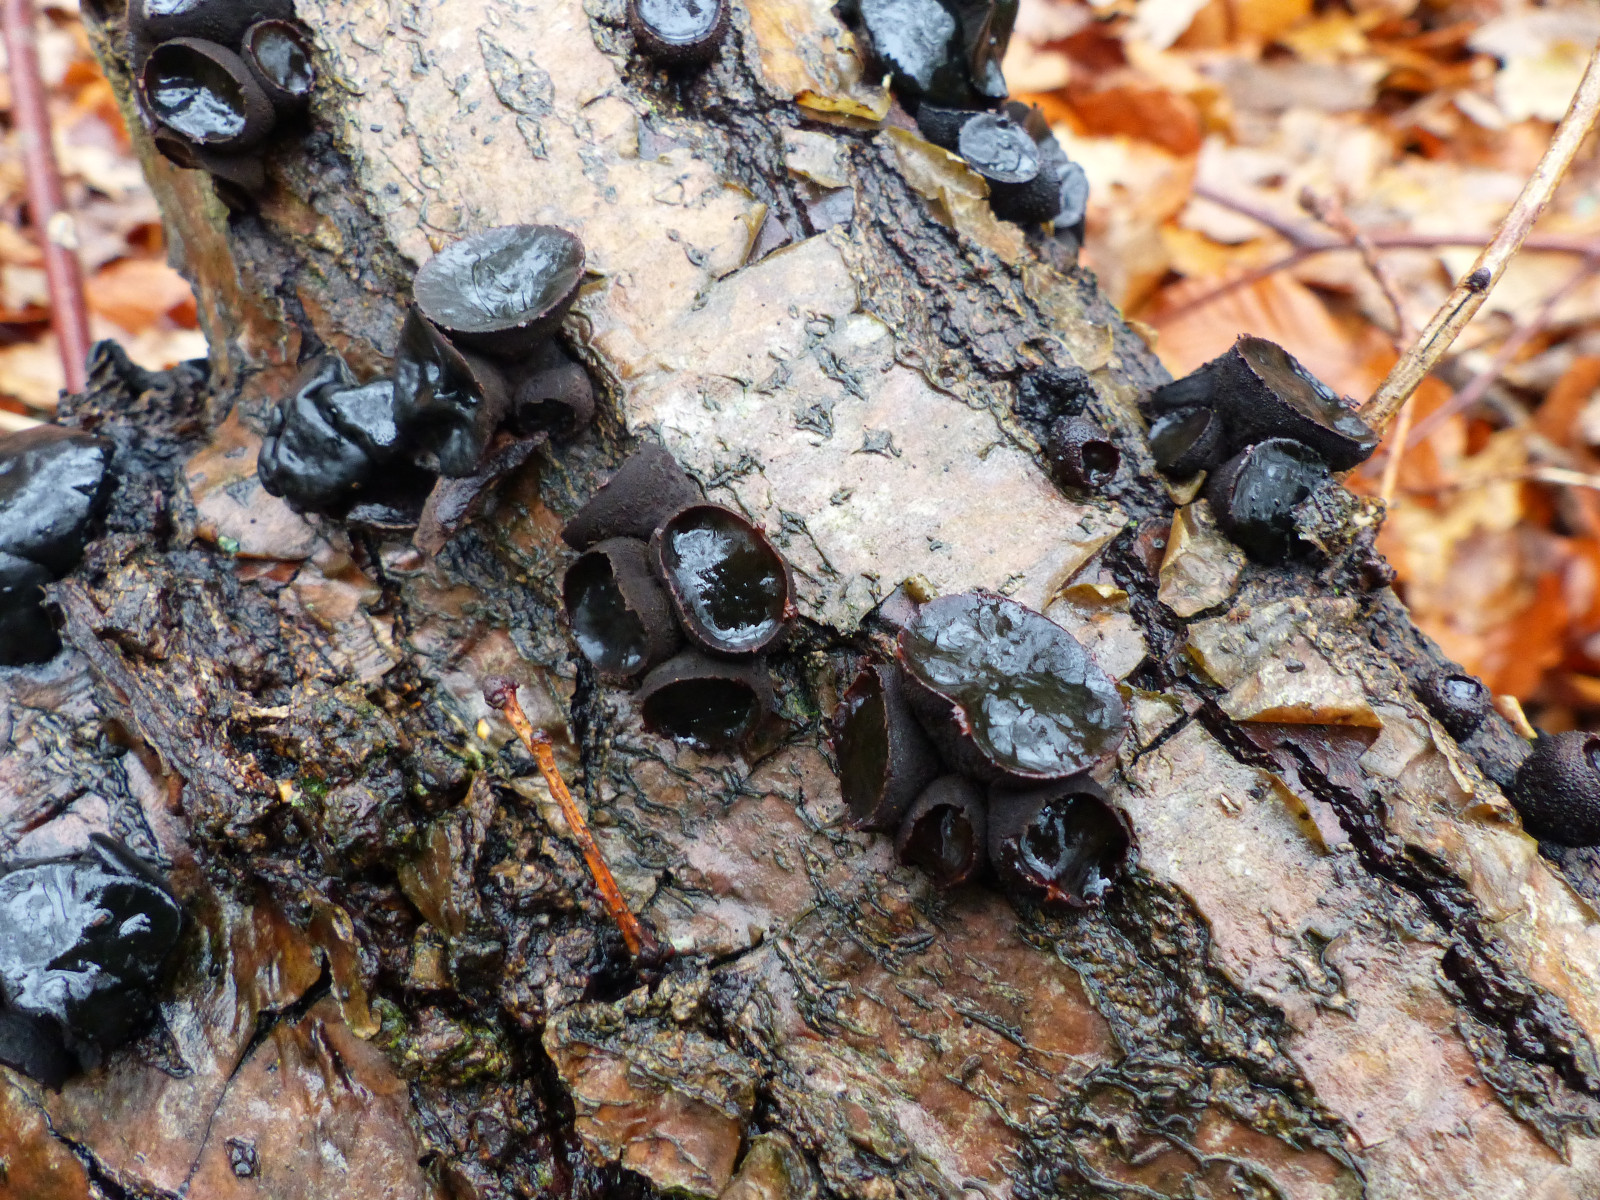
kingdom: Fungi
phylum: Ascomycota
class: Leotiomycetes
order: Phacidiales
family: Phacidiaceae
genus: Bulgaria
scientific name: Bulgaria inquinans
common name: afsmittende topsvamp
